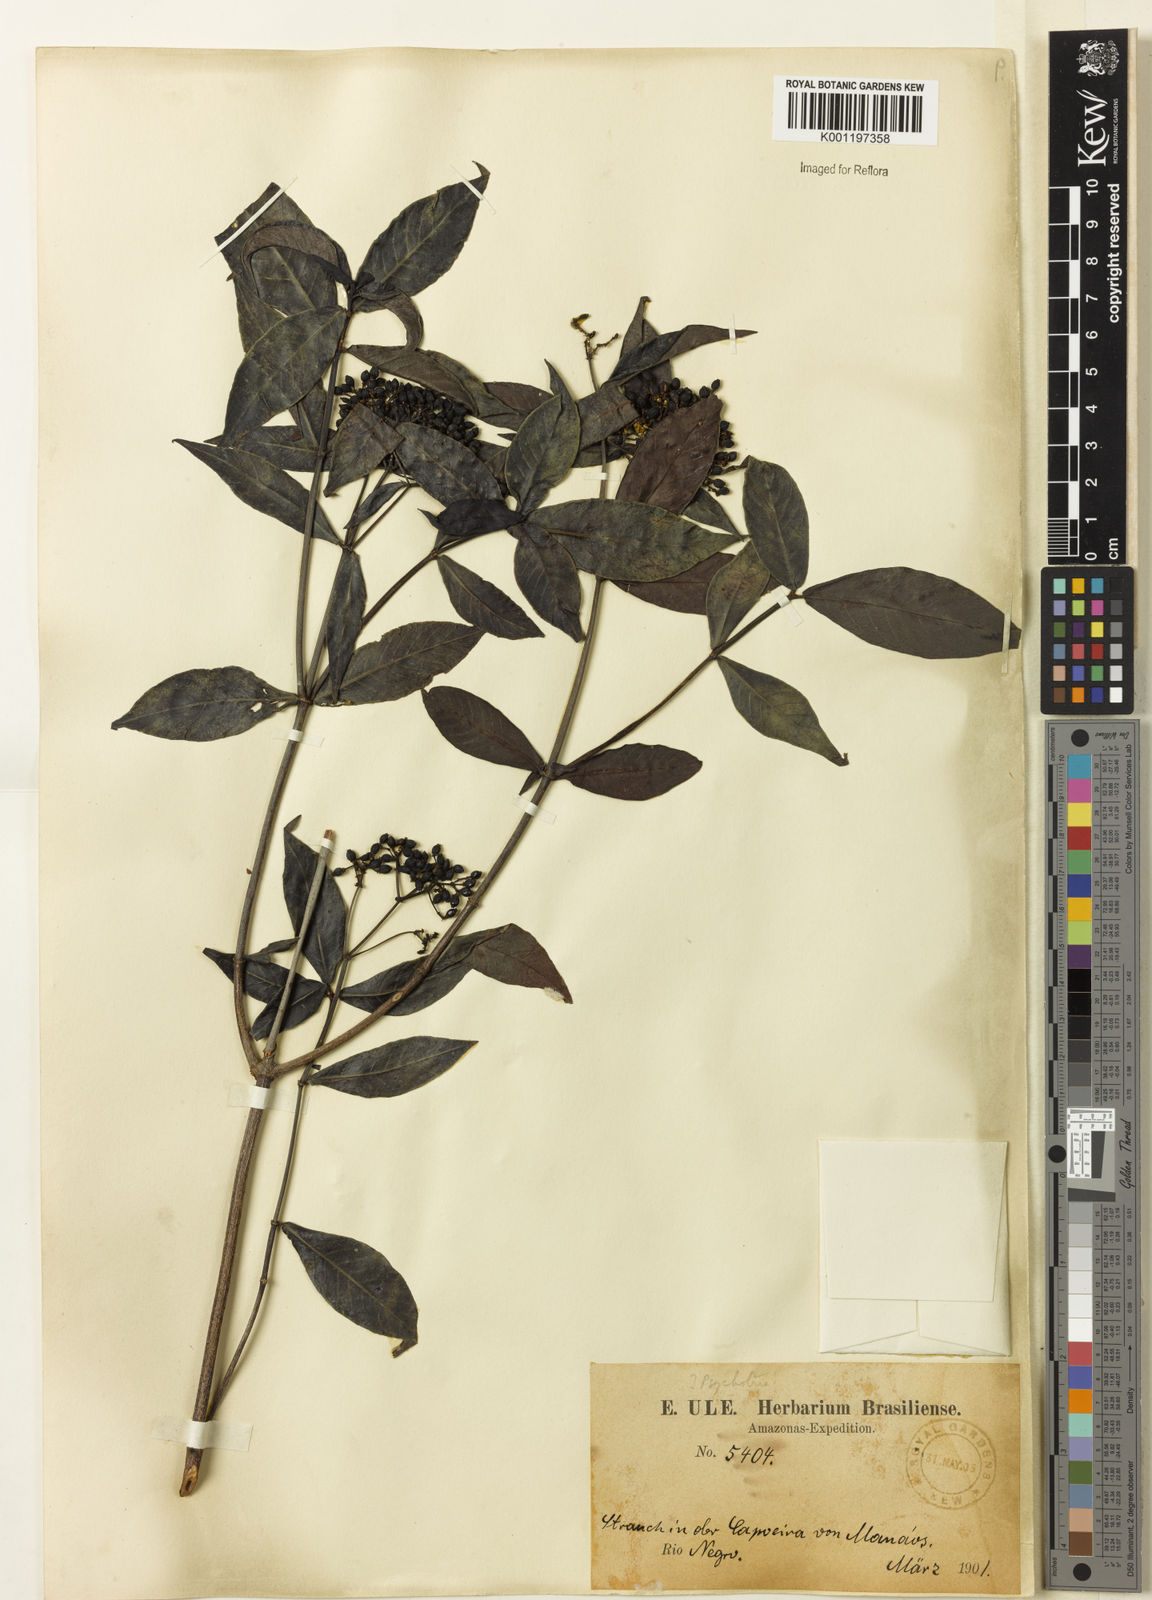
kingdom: Plantae
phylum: Tracheophyta
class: Magnoliopsida
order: Gentianales
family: Rubiaceae
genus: Psychotria
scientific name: Psychotria borjensis
